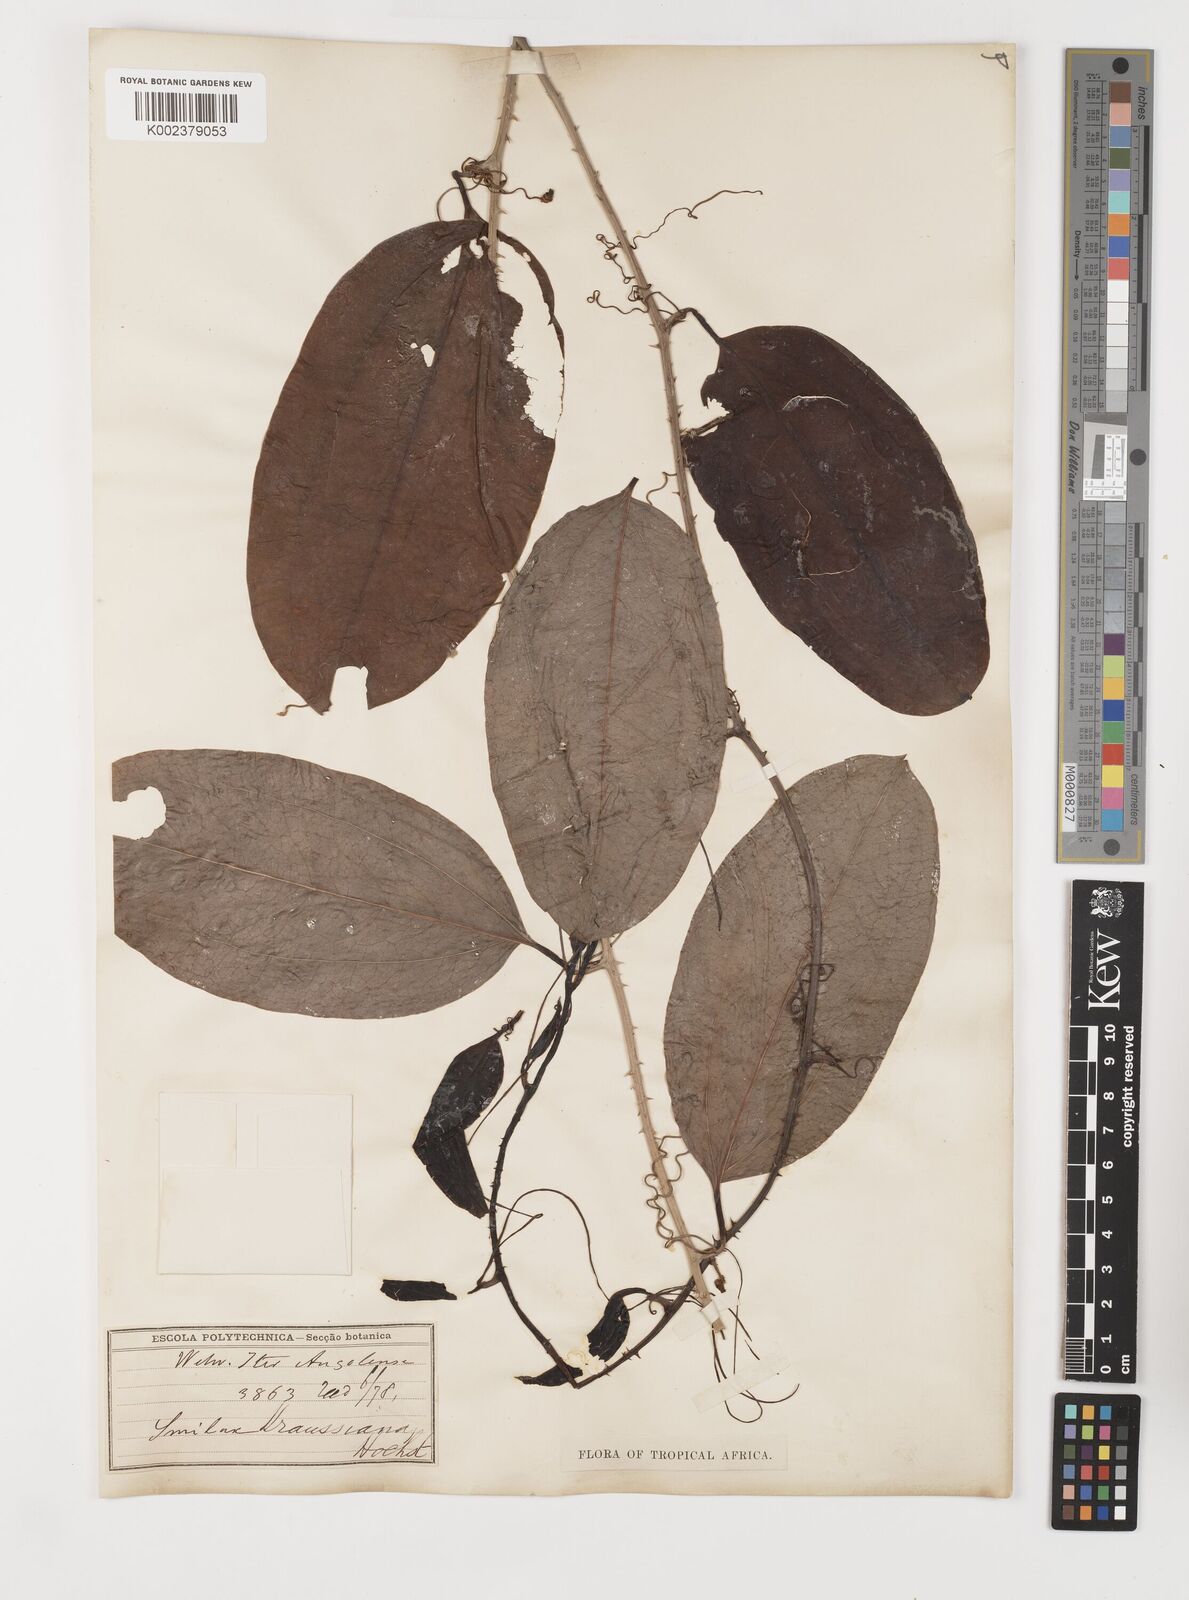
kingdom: Plantae
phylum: Tracheophyta
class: Liliopsida
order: Liliales
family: Smilacaceae
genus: Smilax
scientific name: Smilax anceps
